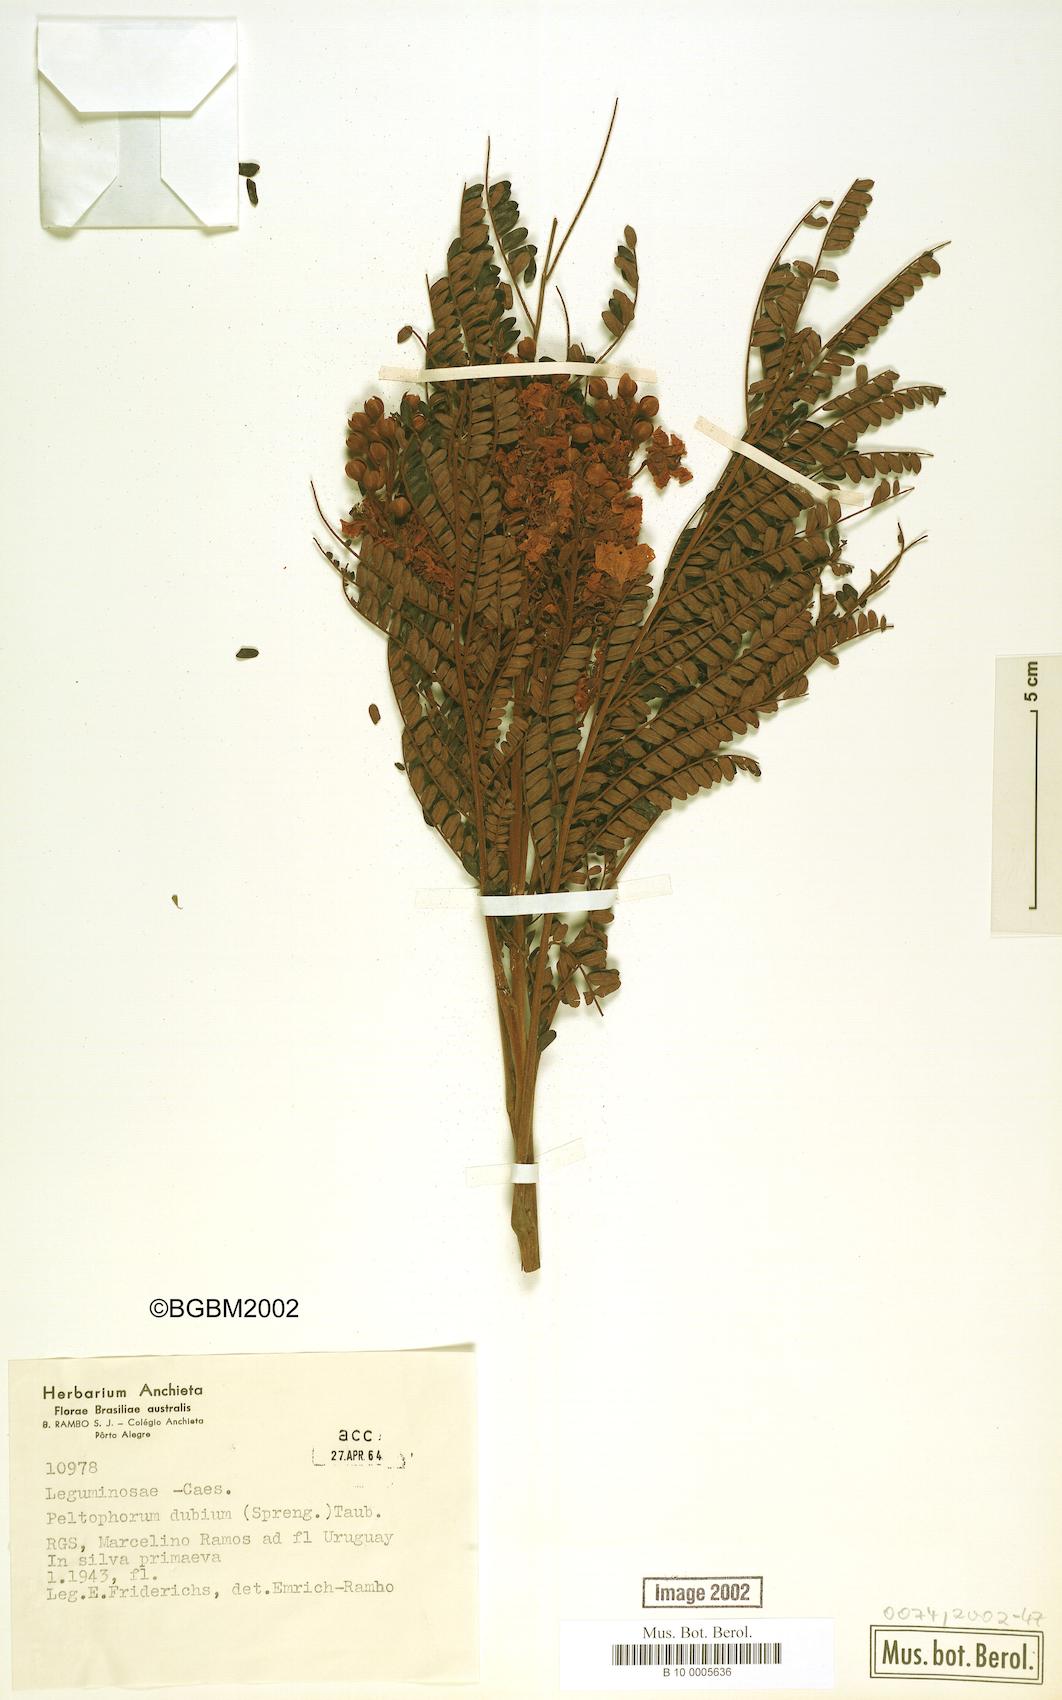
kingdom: Plantae
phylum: Tracheophyta
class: Magnoliopsida
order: Fabales
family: Fabaceae
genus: Peltophorum
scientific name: Peltophorum dubium
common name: Horsebush
